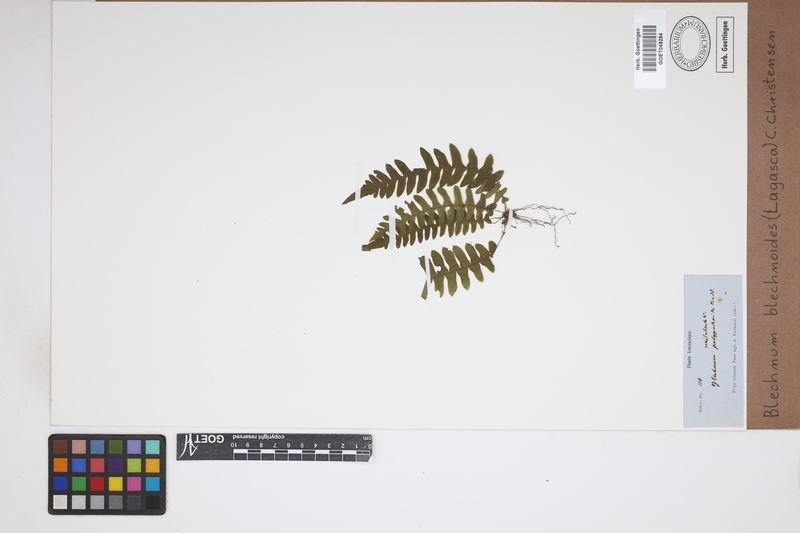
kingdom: Plantae
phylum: Tracheophyta
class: Polypodiopsida
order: Polypodiales
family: Blechnaceae
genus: Blechnum
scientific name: Blechnum polypodioides
